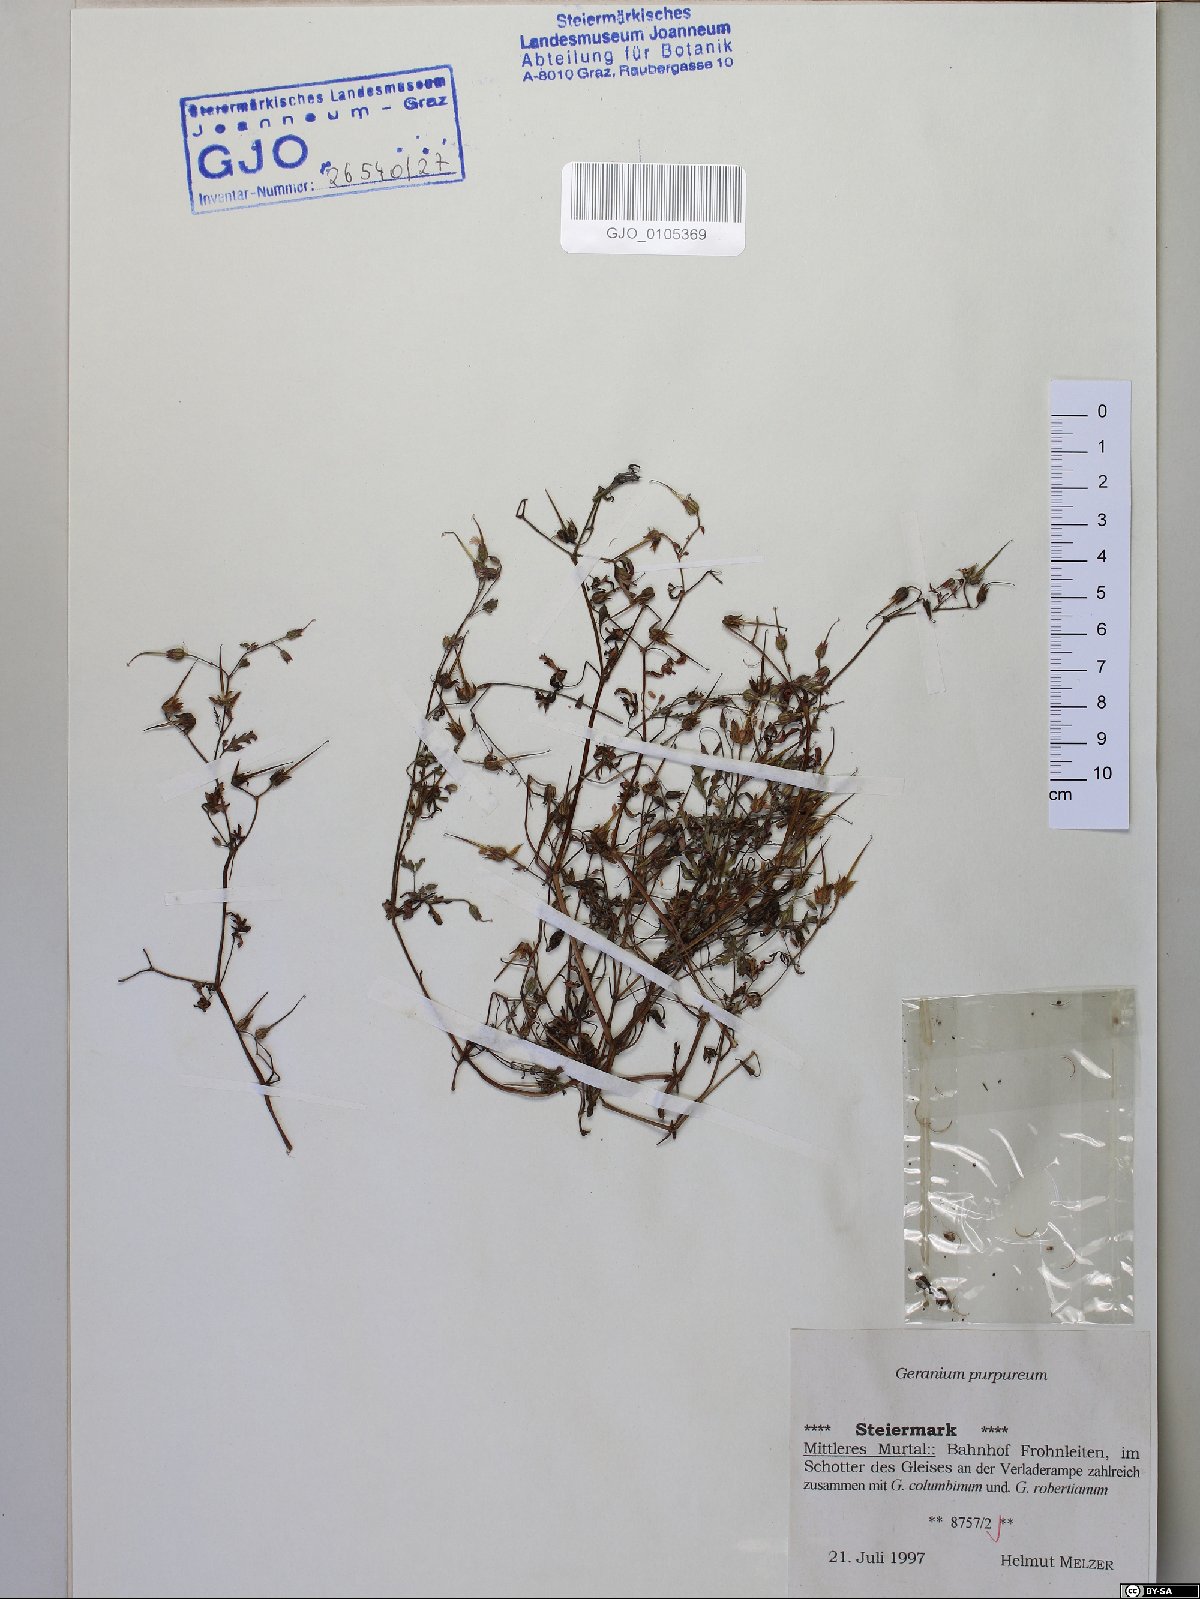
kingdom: Plantae
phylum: Tracheophyta
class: Magnoliopsida
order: Geraniales
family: Geraniaceae
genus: Geranium
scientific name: Geranium purpureum
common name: Little-robin
